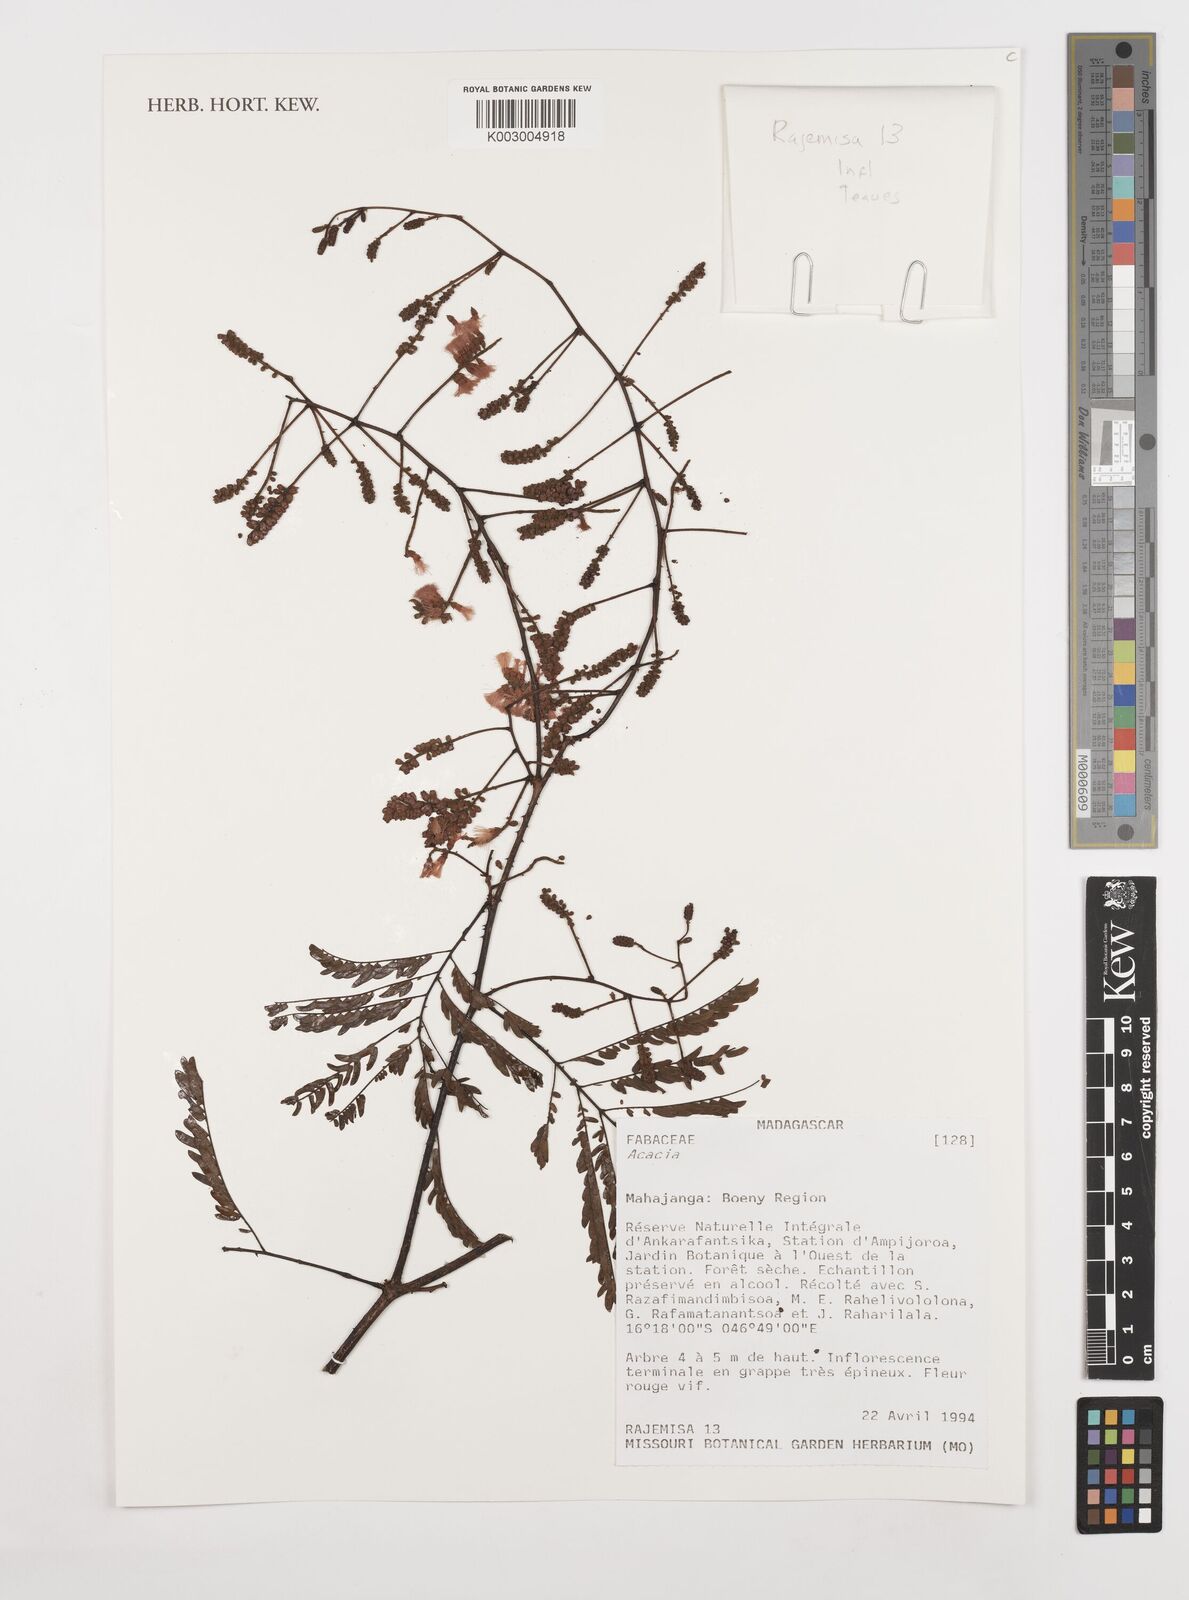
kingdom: Plantae
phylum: Tracheophyta
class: Magnoliopsida
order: Fabales
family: Fabaceae
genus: Acacia
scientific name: Acacia
